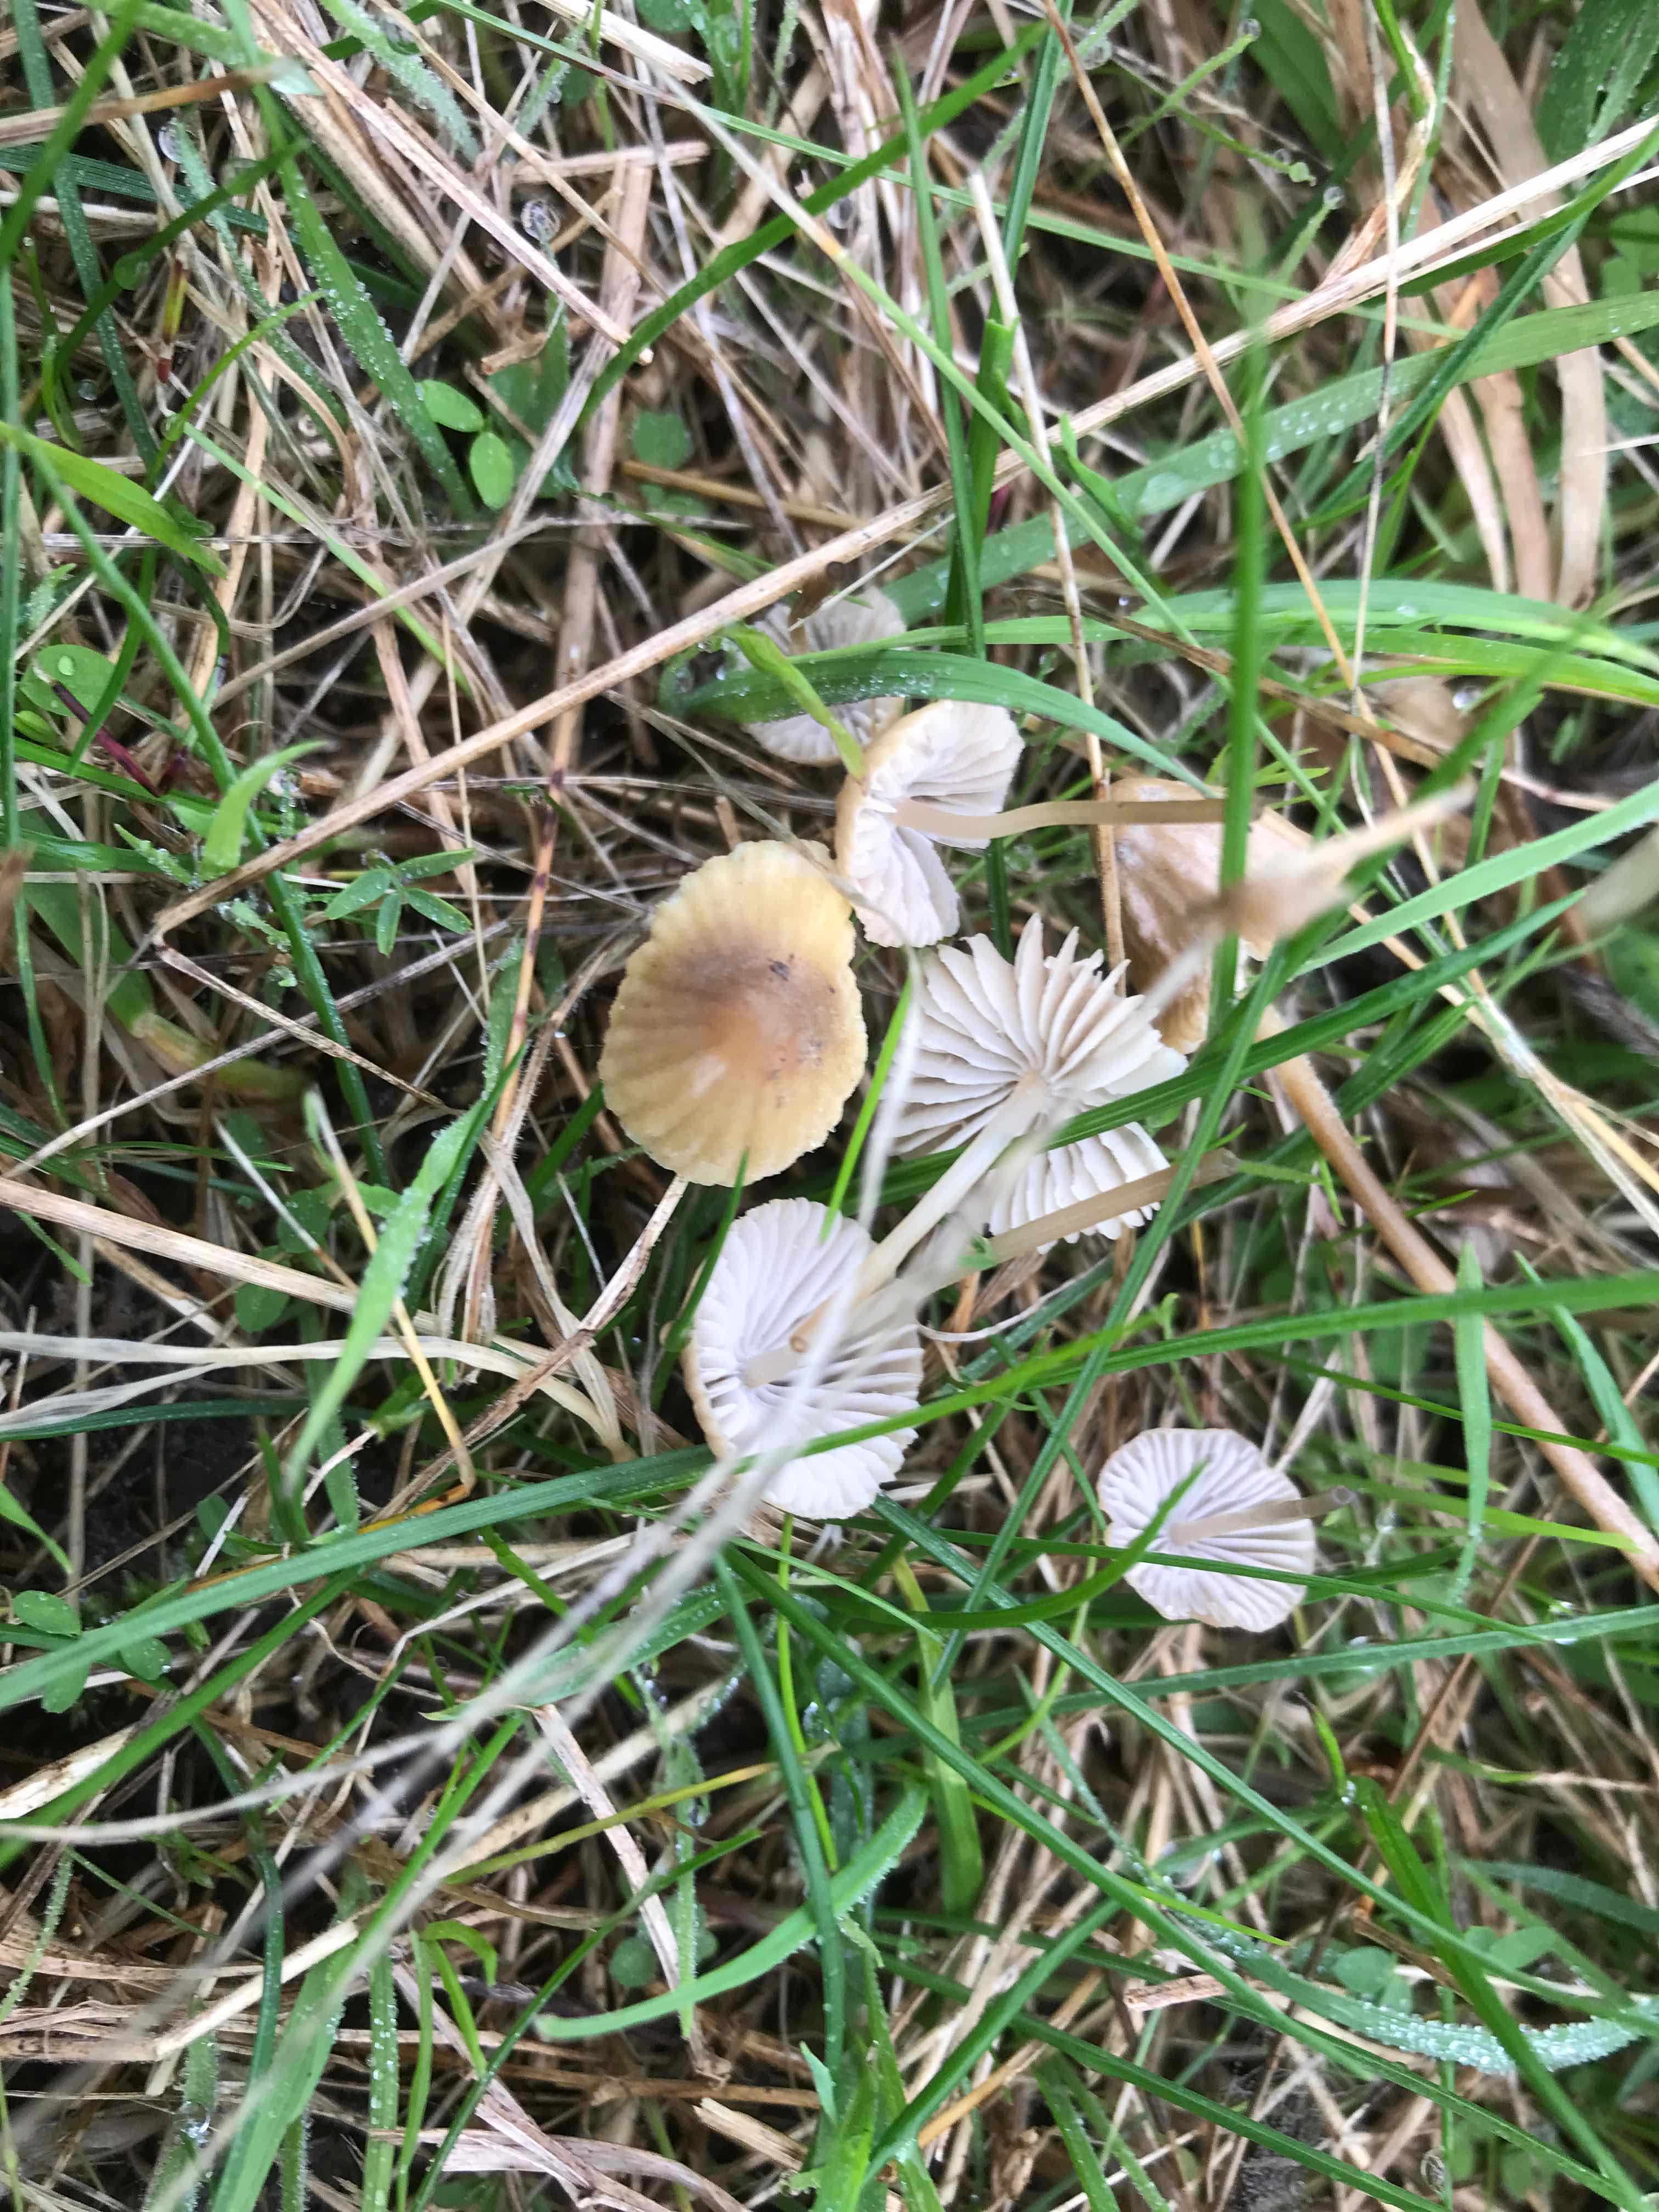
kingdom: Fungi
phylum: Basidiomycota
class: Agaricomycetes
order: Agaricales
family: Mycenaceae
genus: Mycena
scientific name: Mycena olivaceomarginata
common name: brunægget huesvamp
